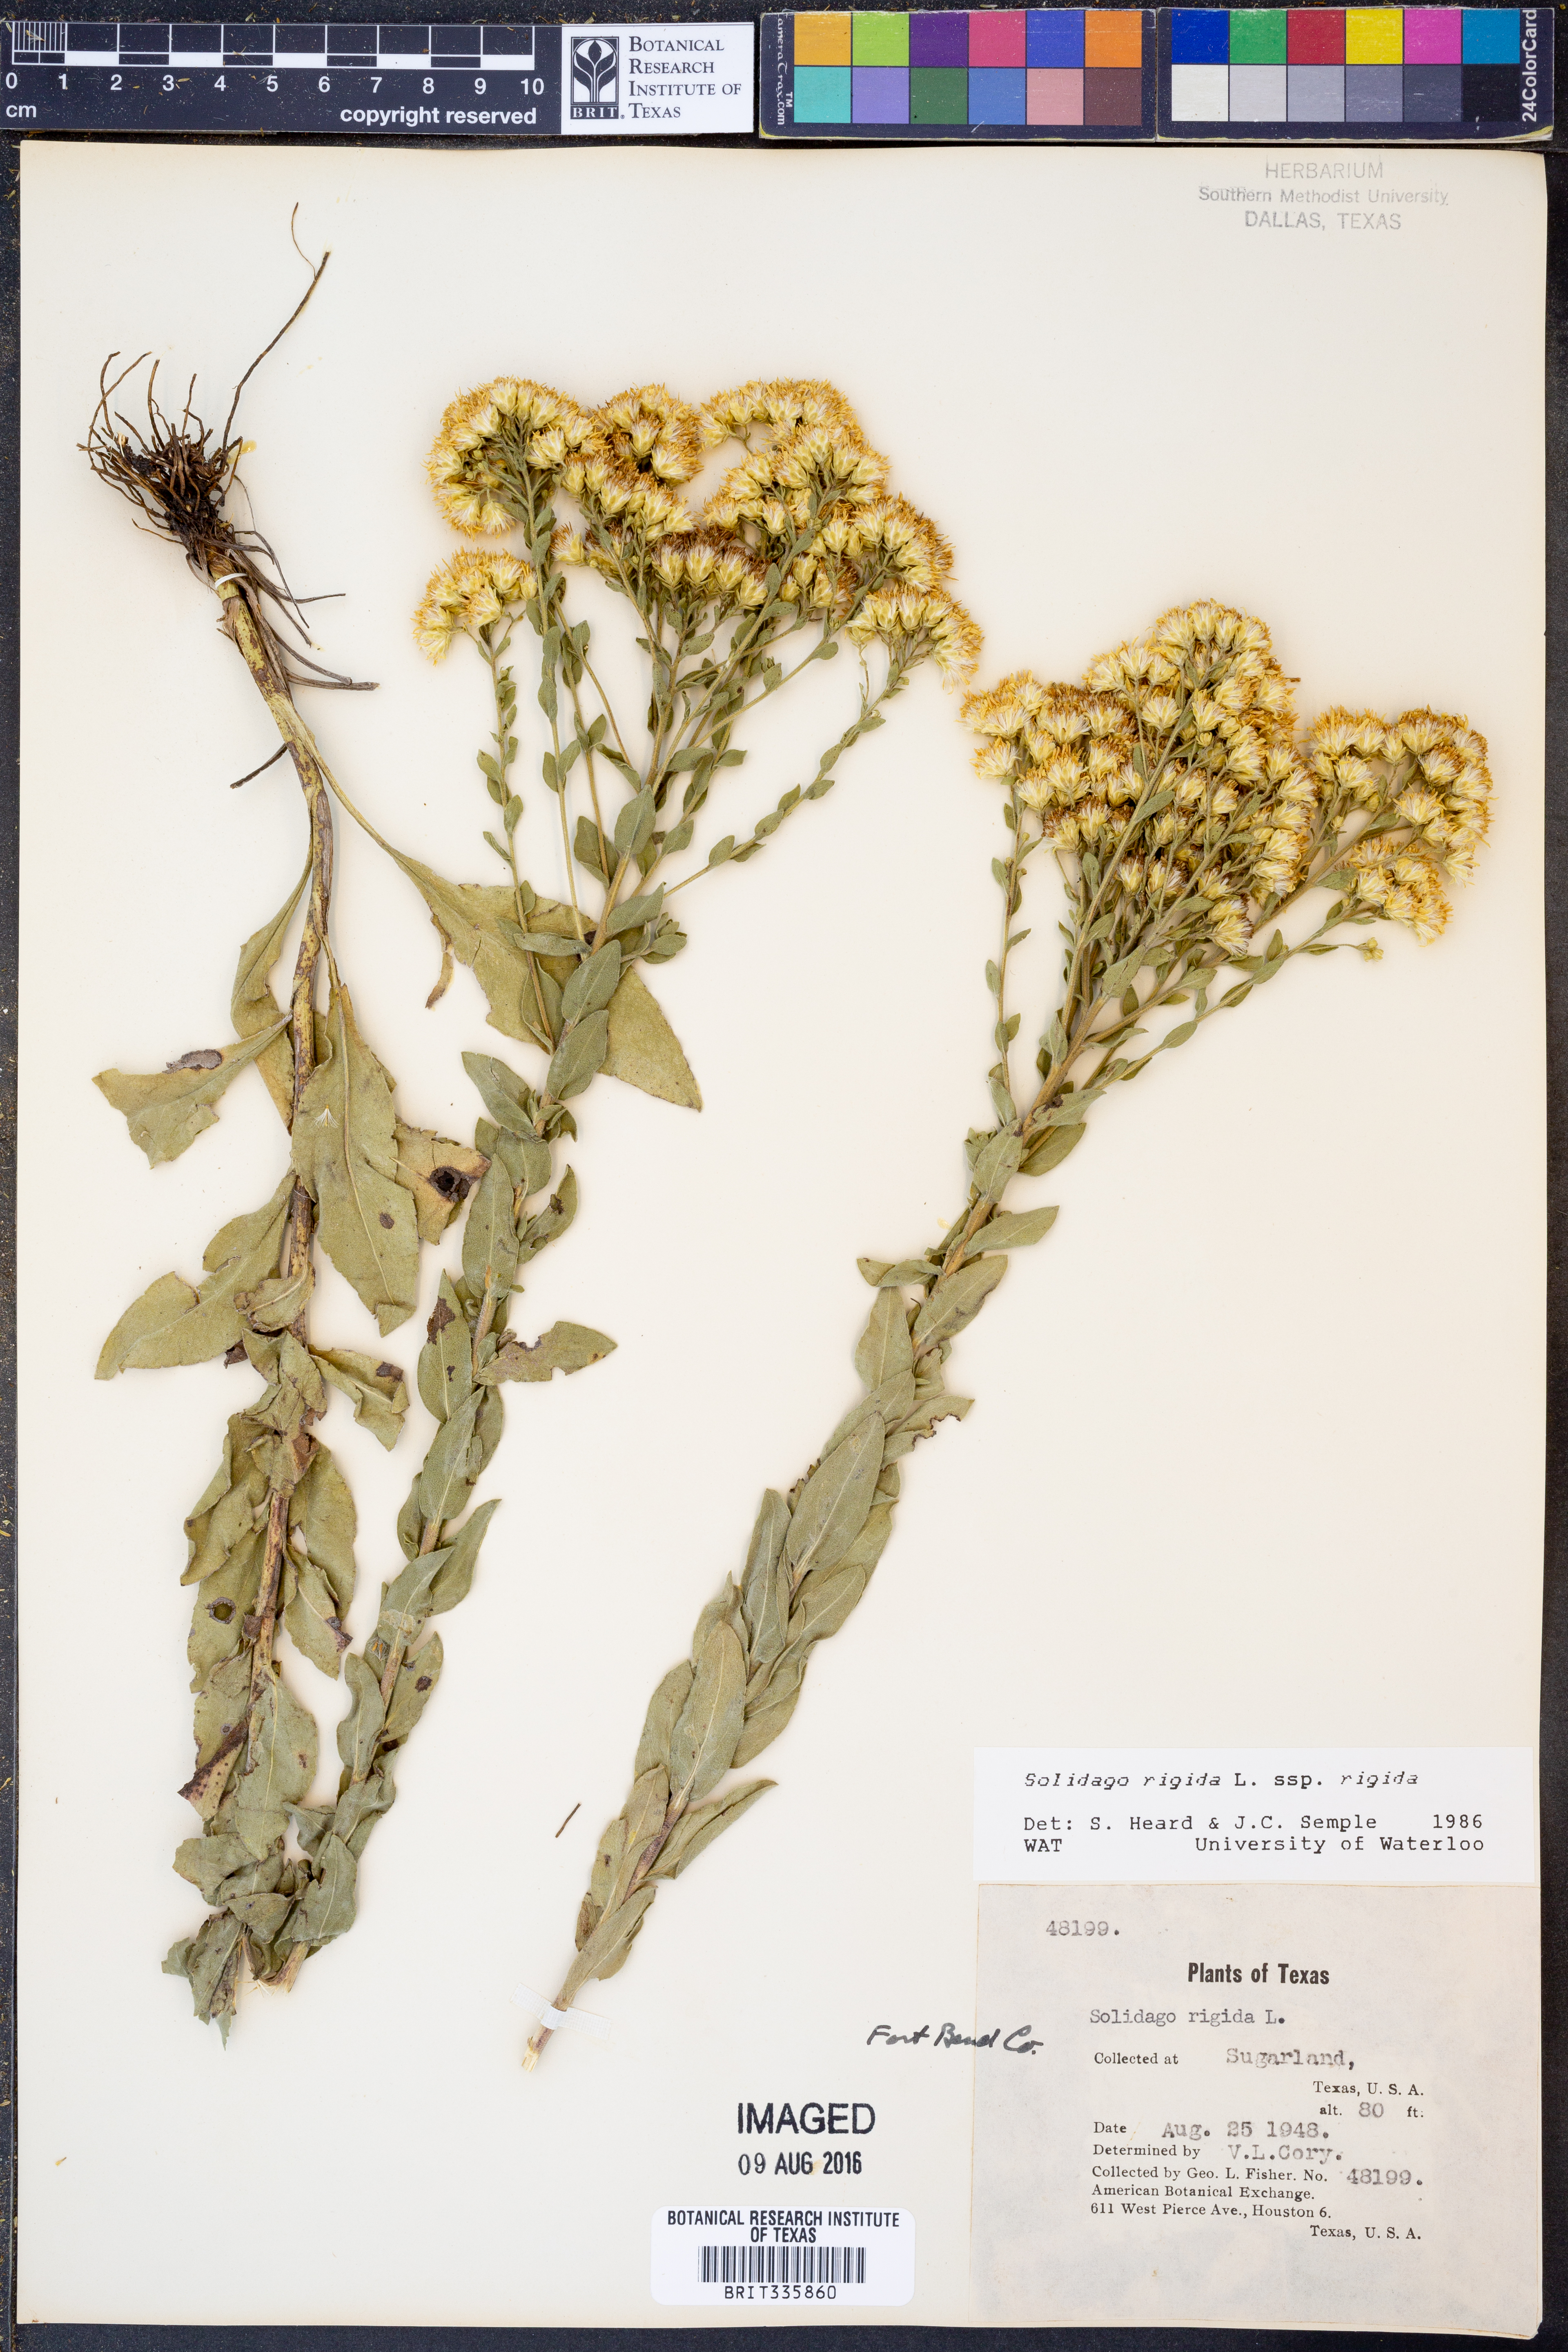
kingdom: Plantae
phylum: Tracheophyta
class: Magnoliopsida
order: Asterales
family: Asteraceae
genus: Solidago
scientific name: Solidago rigida
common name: Rigid goldenrod
